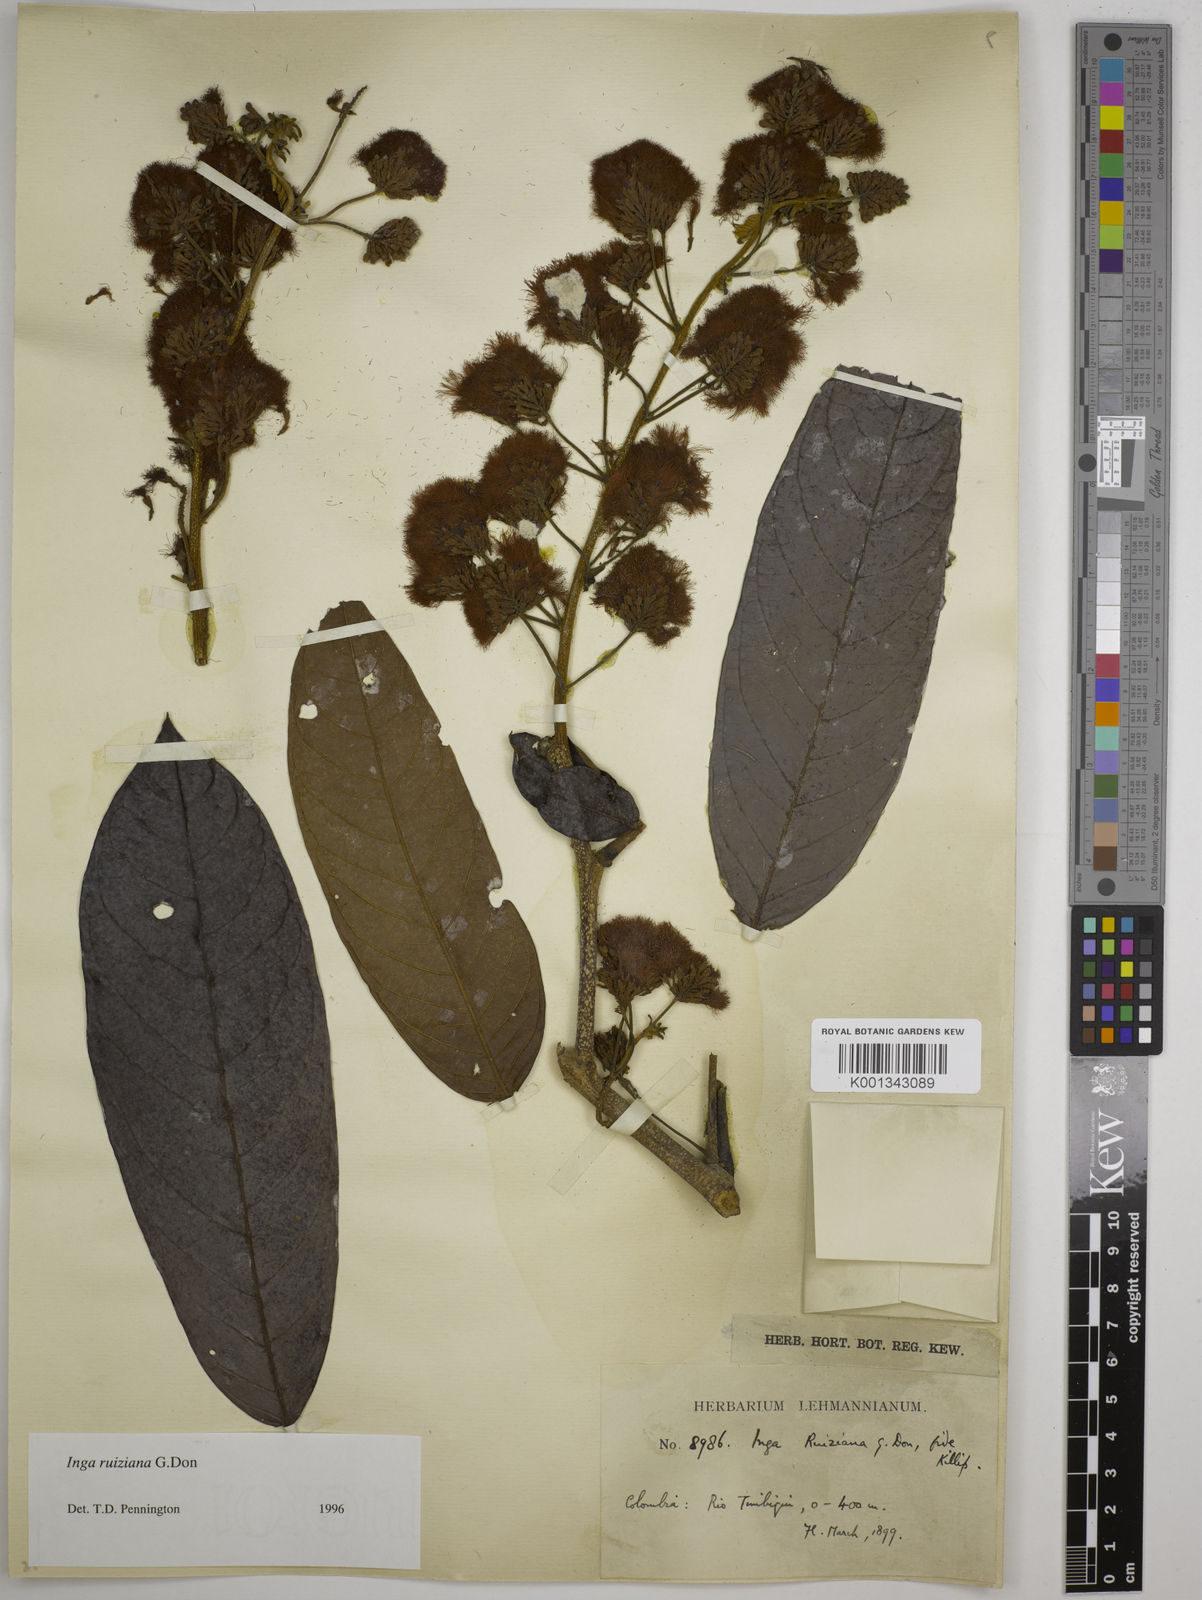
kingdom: Plantae
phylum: Tracheophyta
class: Magnoliopsida
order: Fabales
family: Fabaceae
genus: Inga
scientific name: Inga ruiziana
